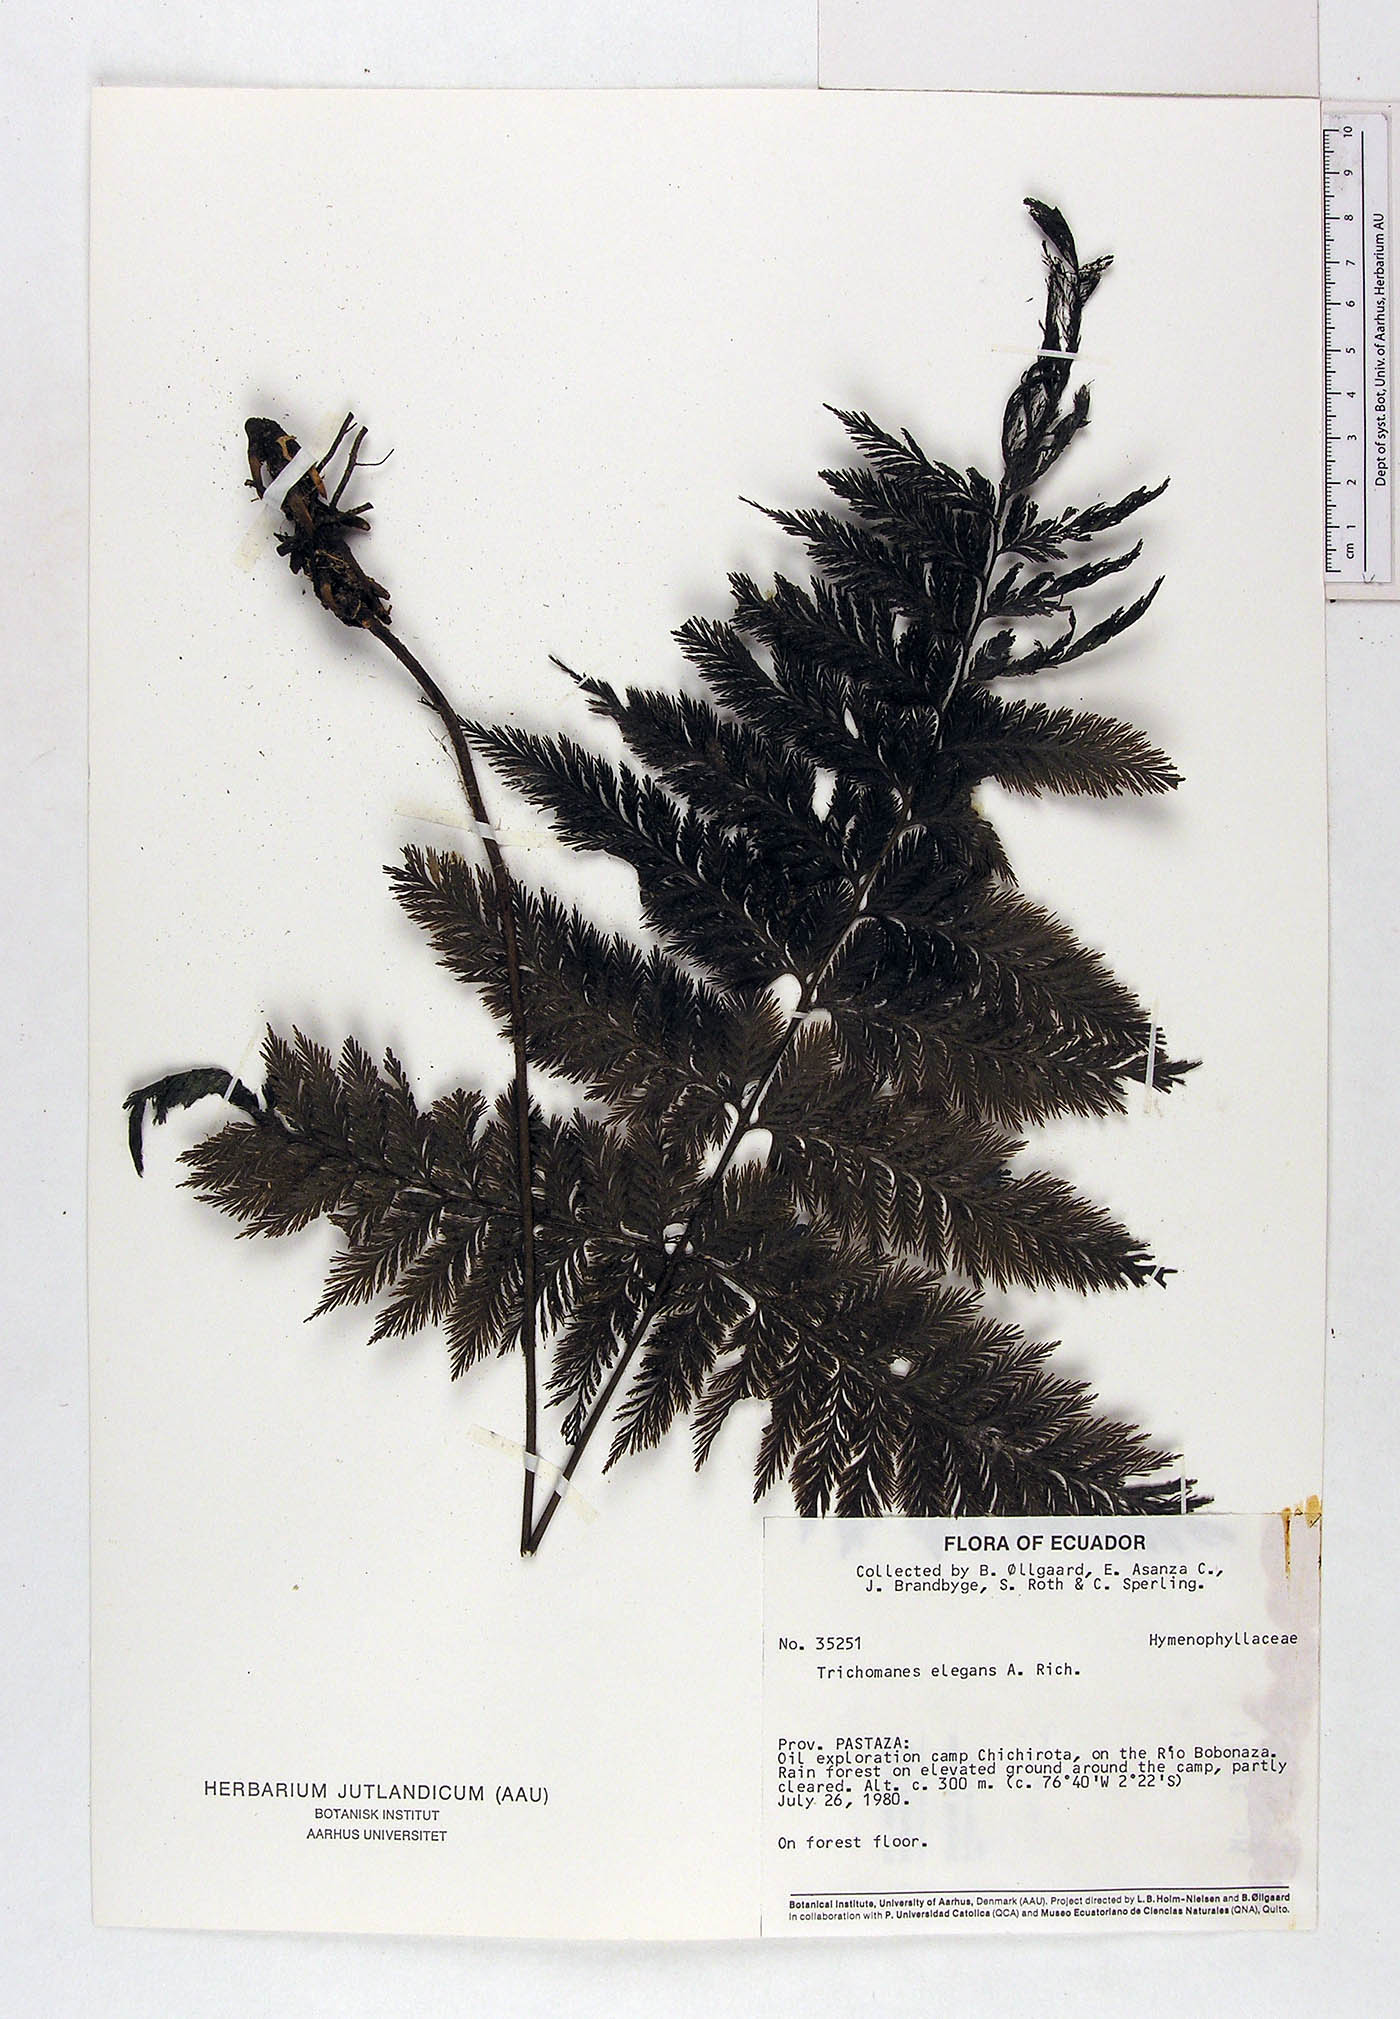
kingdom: Plantae
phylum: Tracheophyta
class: Polypodiopsida
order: Hymenophyllales
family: Hymenophyllaceae
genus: Trichomanes
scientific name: Trichomanes elegans
